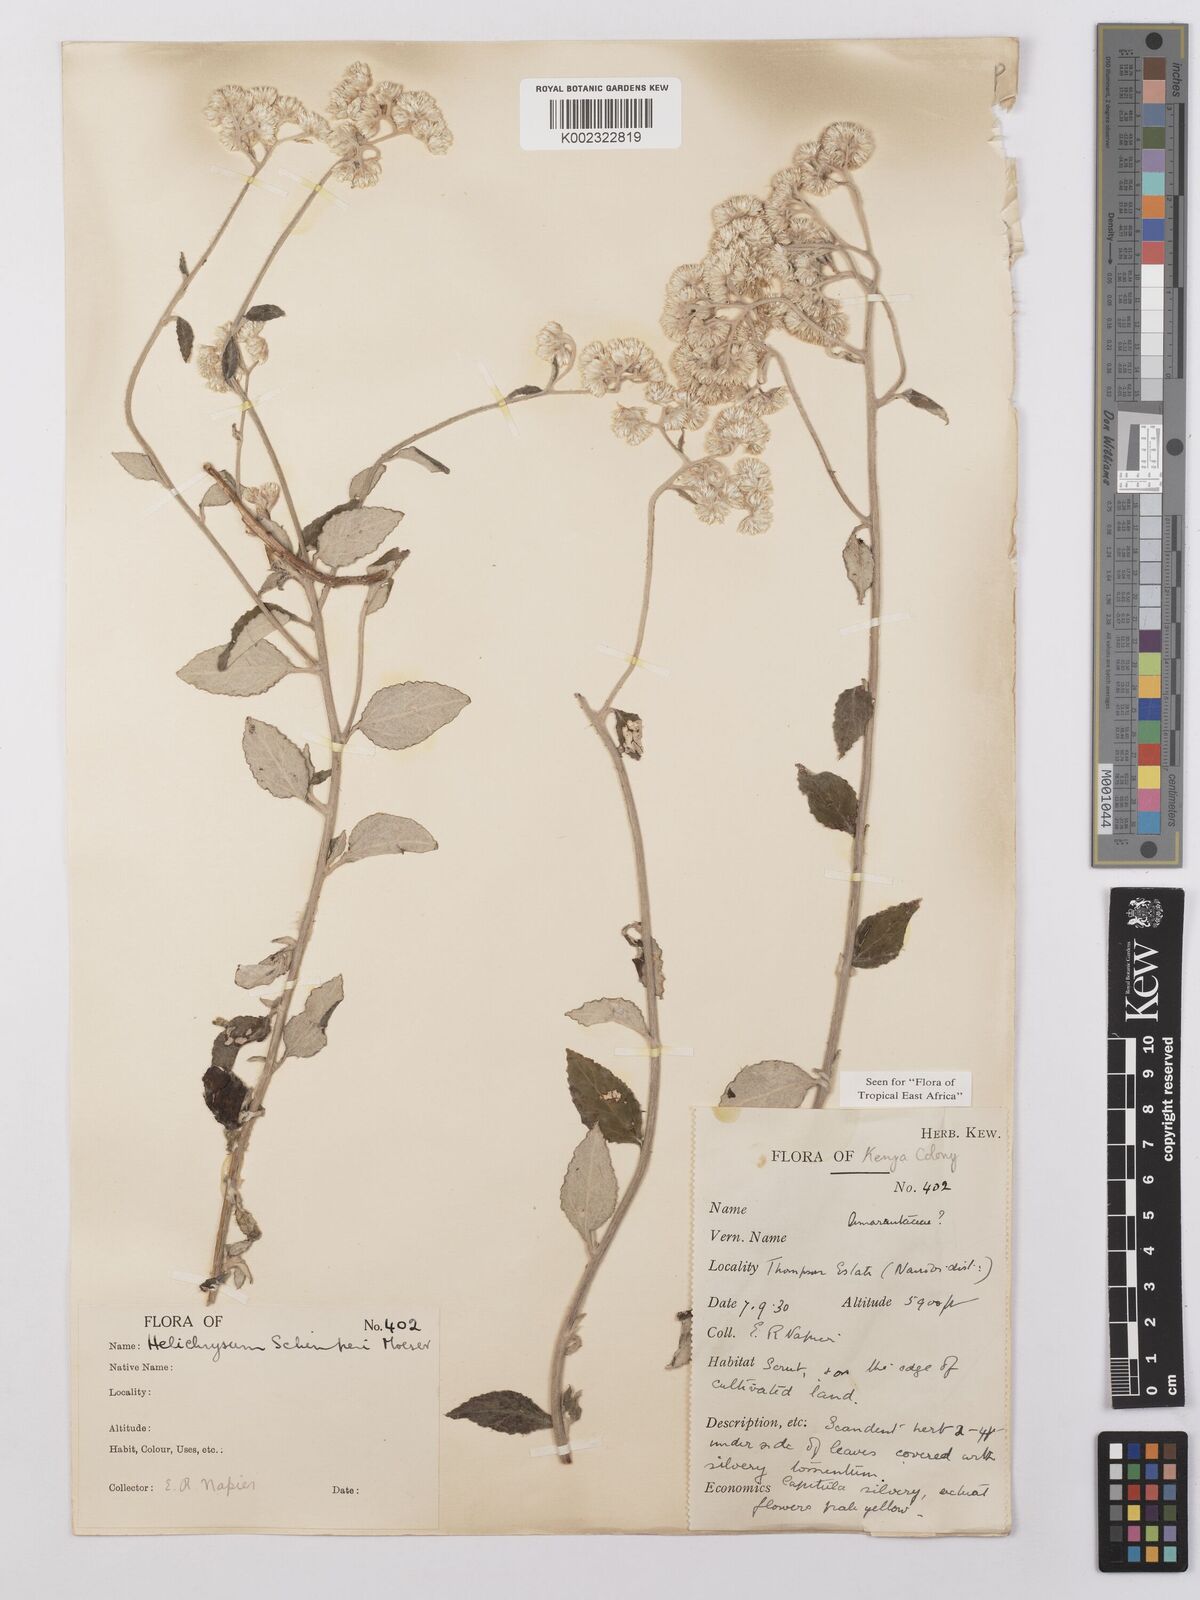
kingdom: Plantae
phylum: Tracheophyta
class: Magnoliopsida
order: Asterales
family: Asteraceae
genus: Helichrysum
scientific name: Helichrysum schimperi
